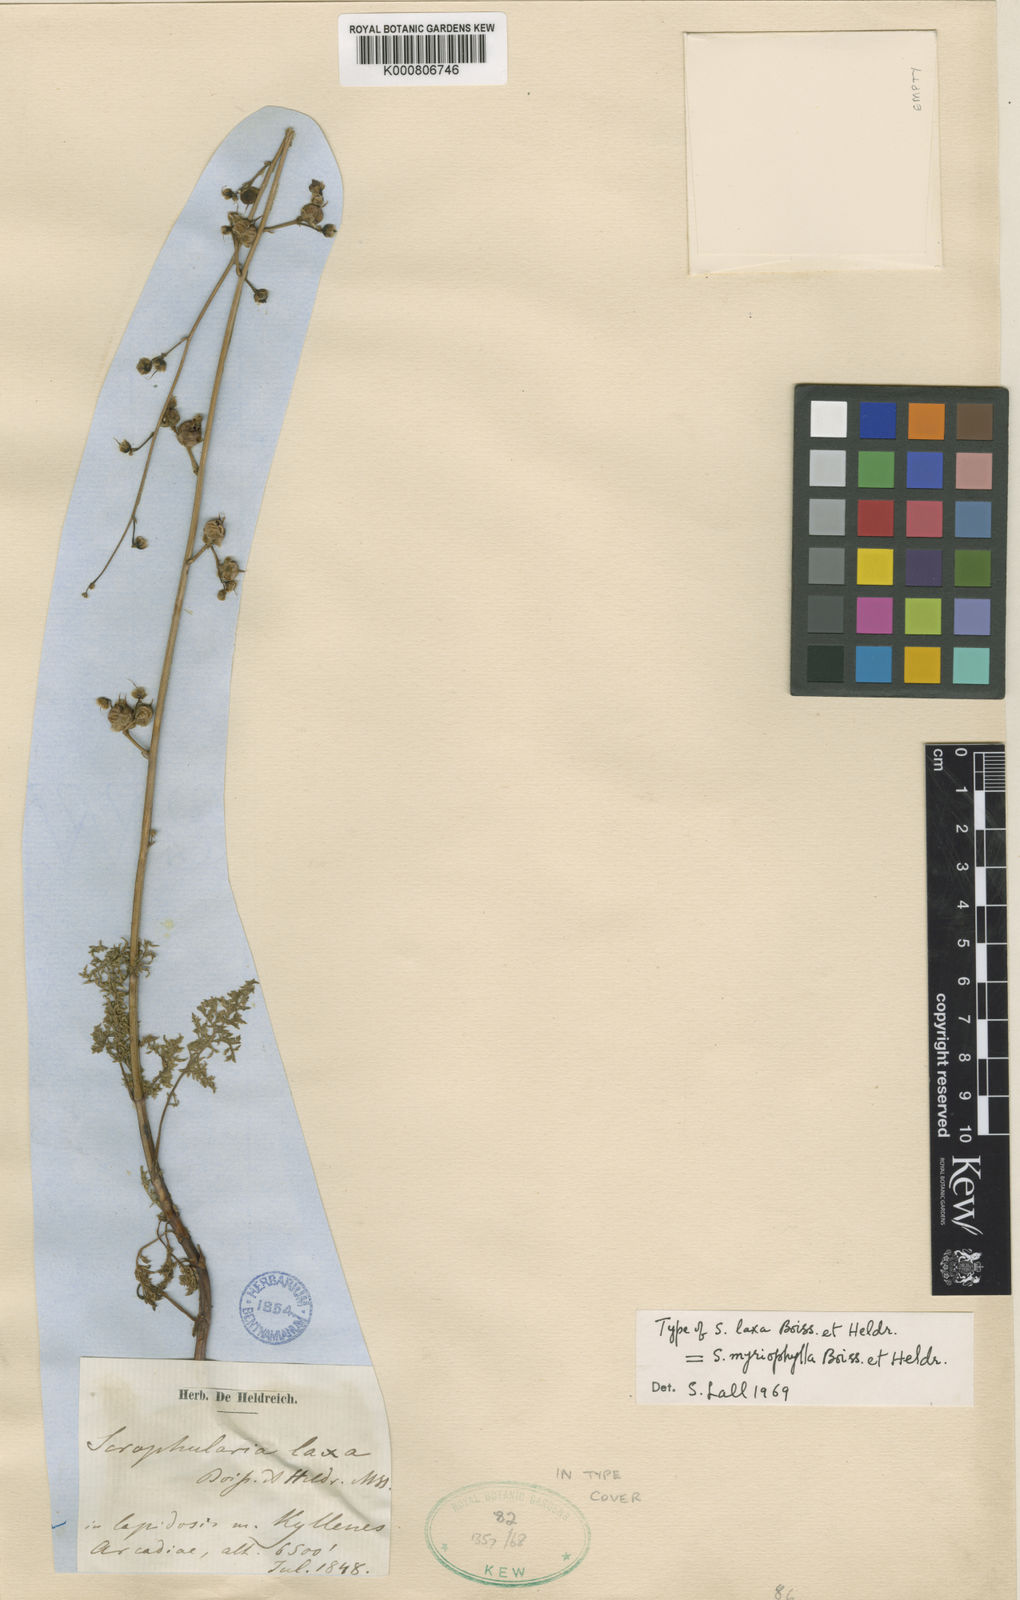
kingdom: Plantae
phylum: Tracheophyta
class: Magnoliopsida
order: Lamiales
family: Scrophulariaceae
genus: Scrophularia
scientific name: Scrophularia myriophylla
